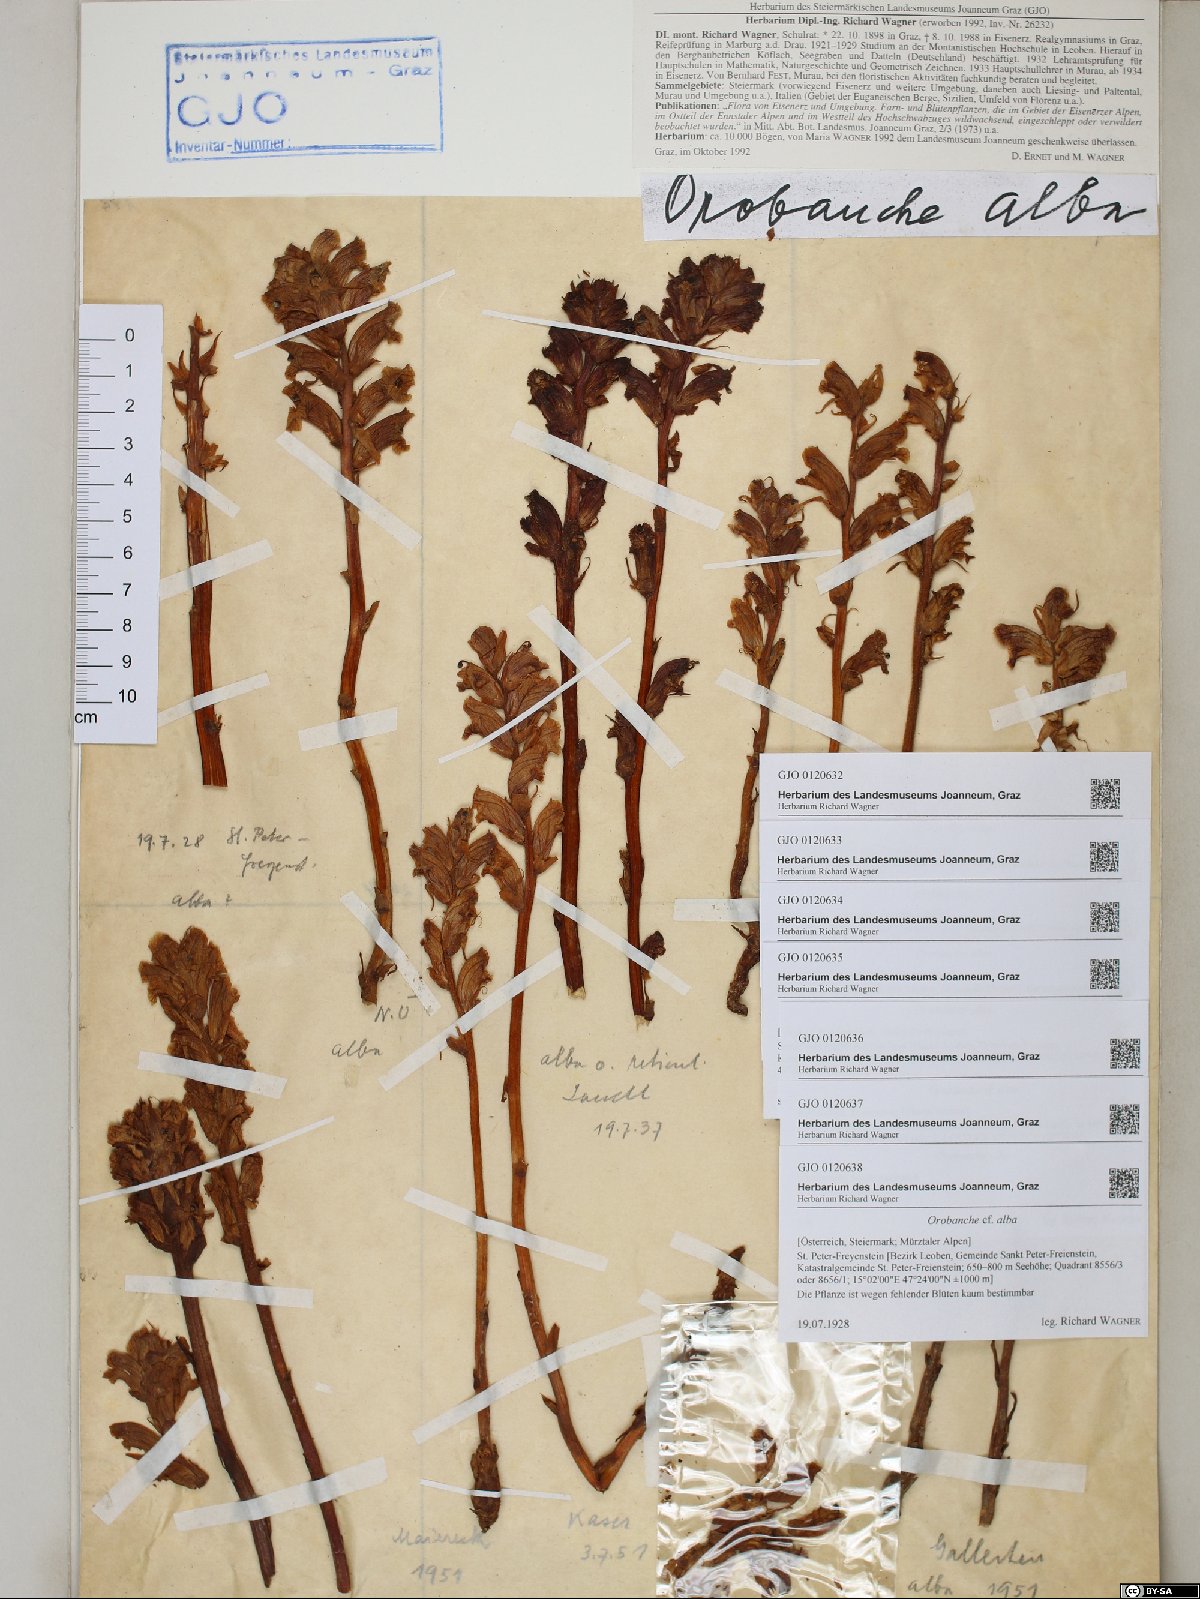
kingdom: Plantae
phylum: Tracheophyta
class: Magnoliopsida
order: Lamiales
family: Orobanchaceae
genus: Orobanche
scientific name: Orobanche alba
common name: Thyme broomrape
